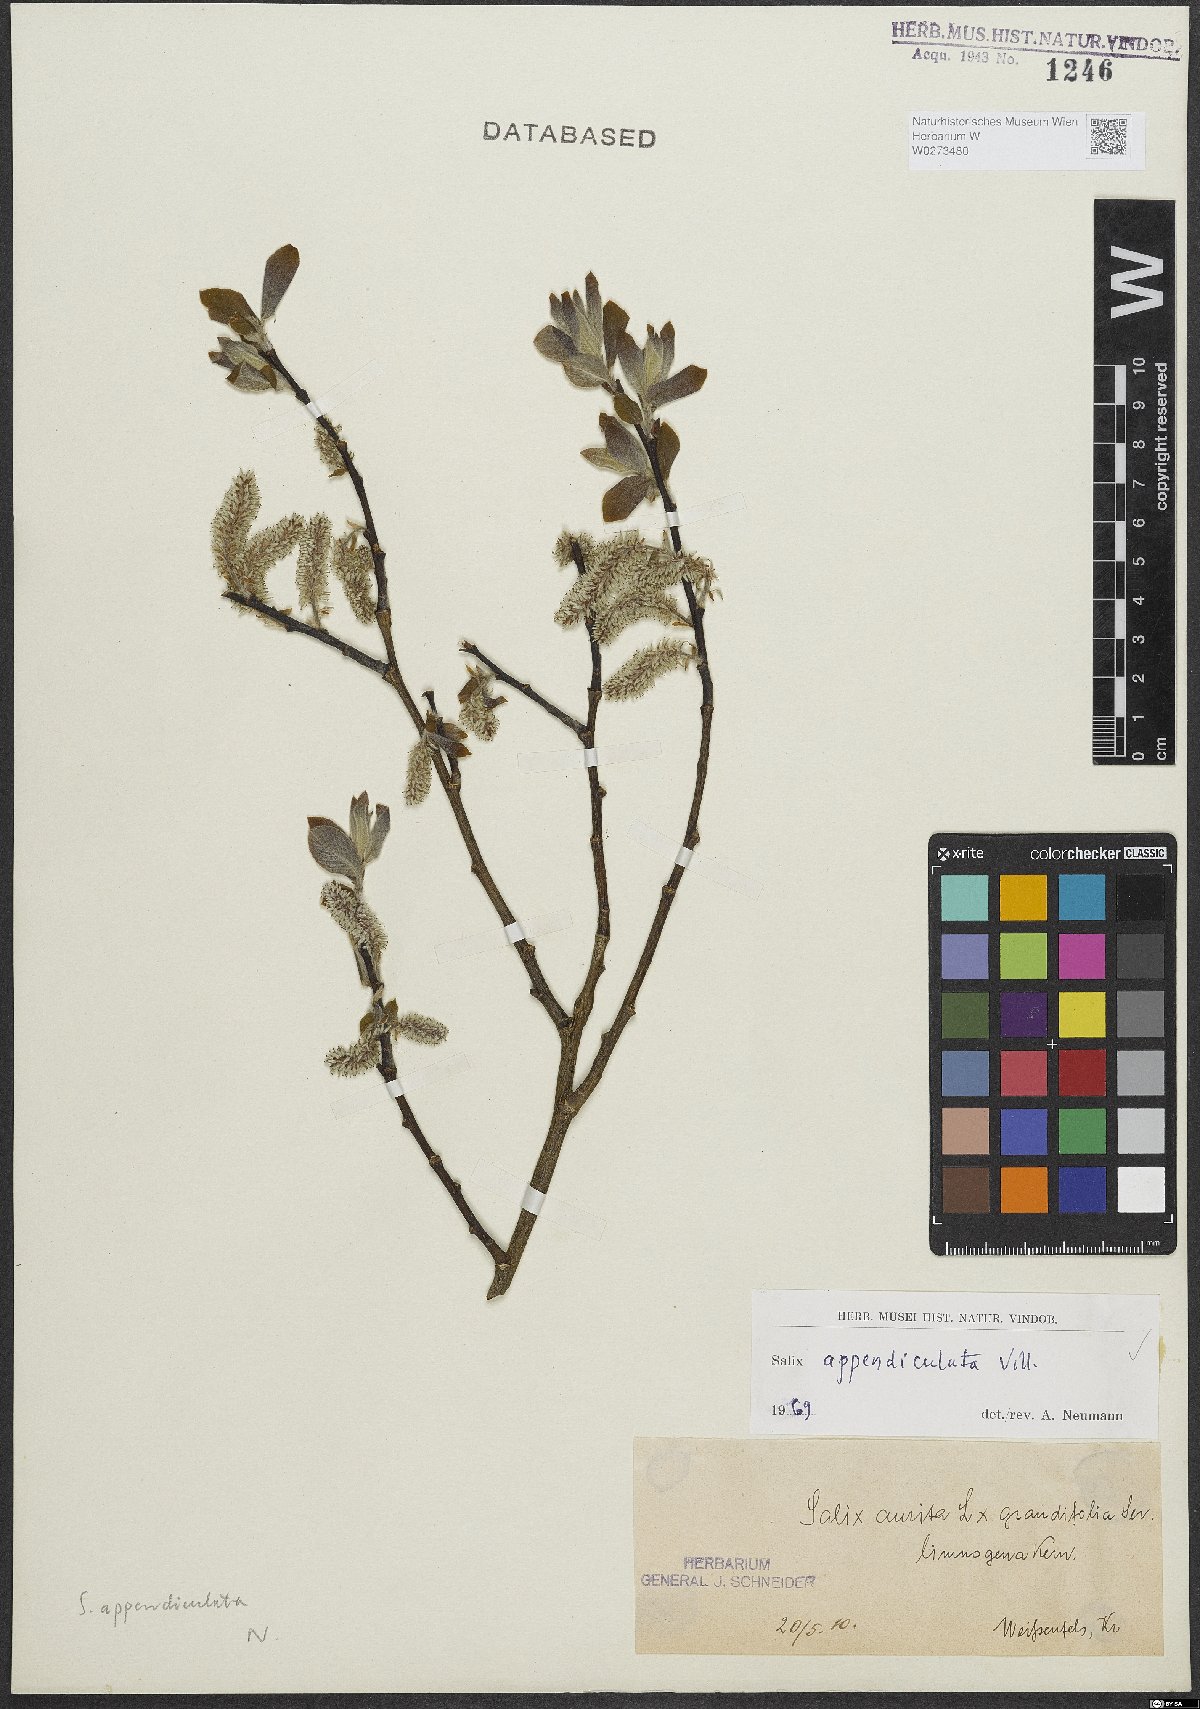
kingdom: Plantae
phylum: Tracheophyta
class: Magnoliopsida
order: Malpighiales
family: Salicaceae
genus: Salix
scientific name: Salix appendiculata
